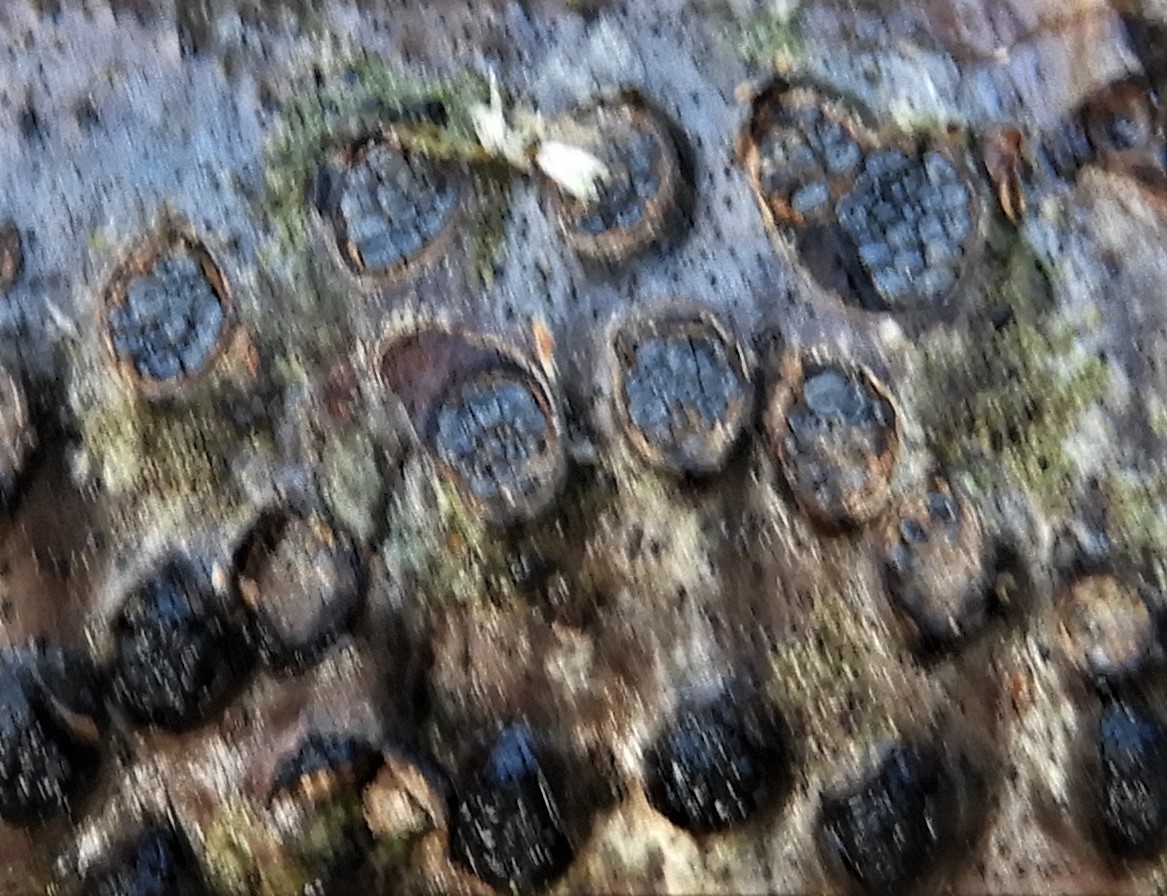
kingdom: Fungi
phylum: Ascomycota
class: Sordariomycetes
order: Xylariales
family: Diatrypaceae
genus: Diatrypella
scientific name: Diatrypella quercina
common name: ege-kulskorpe
